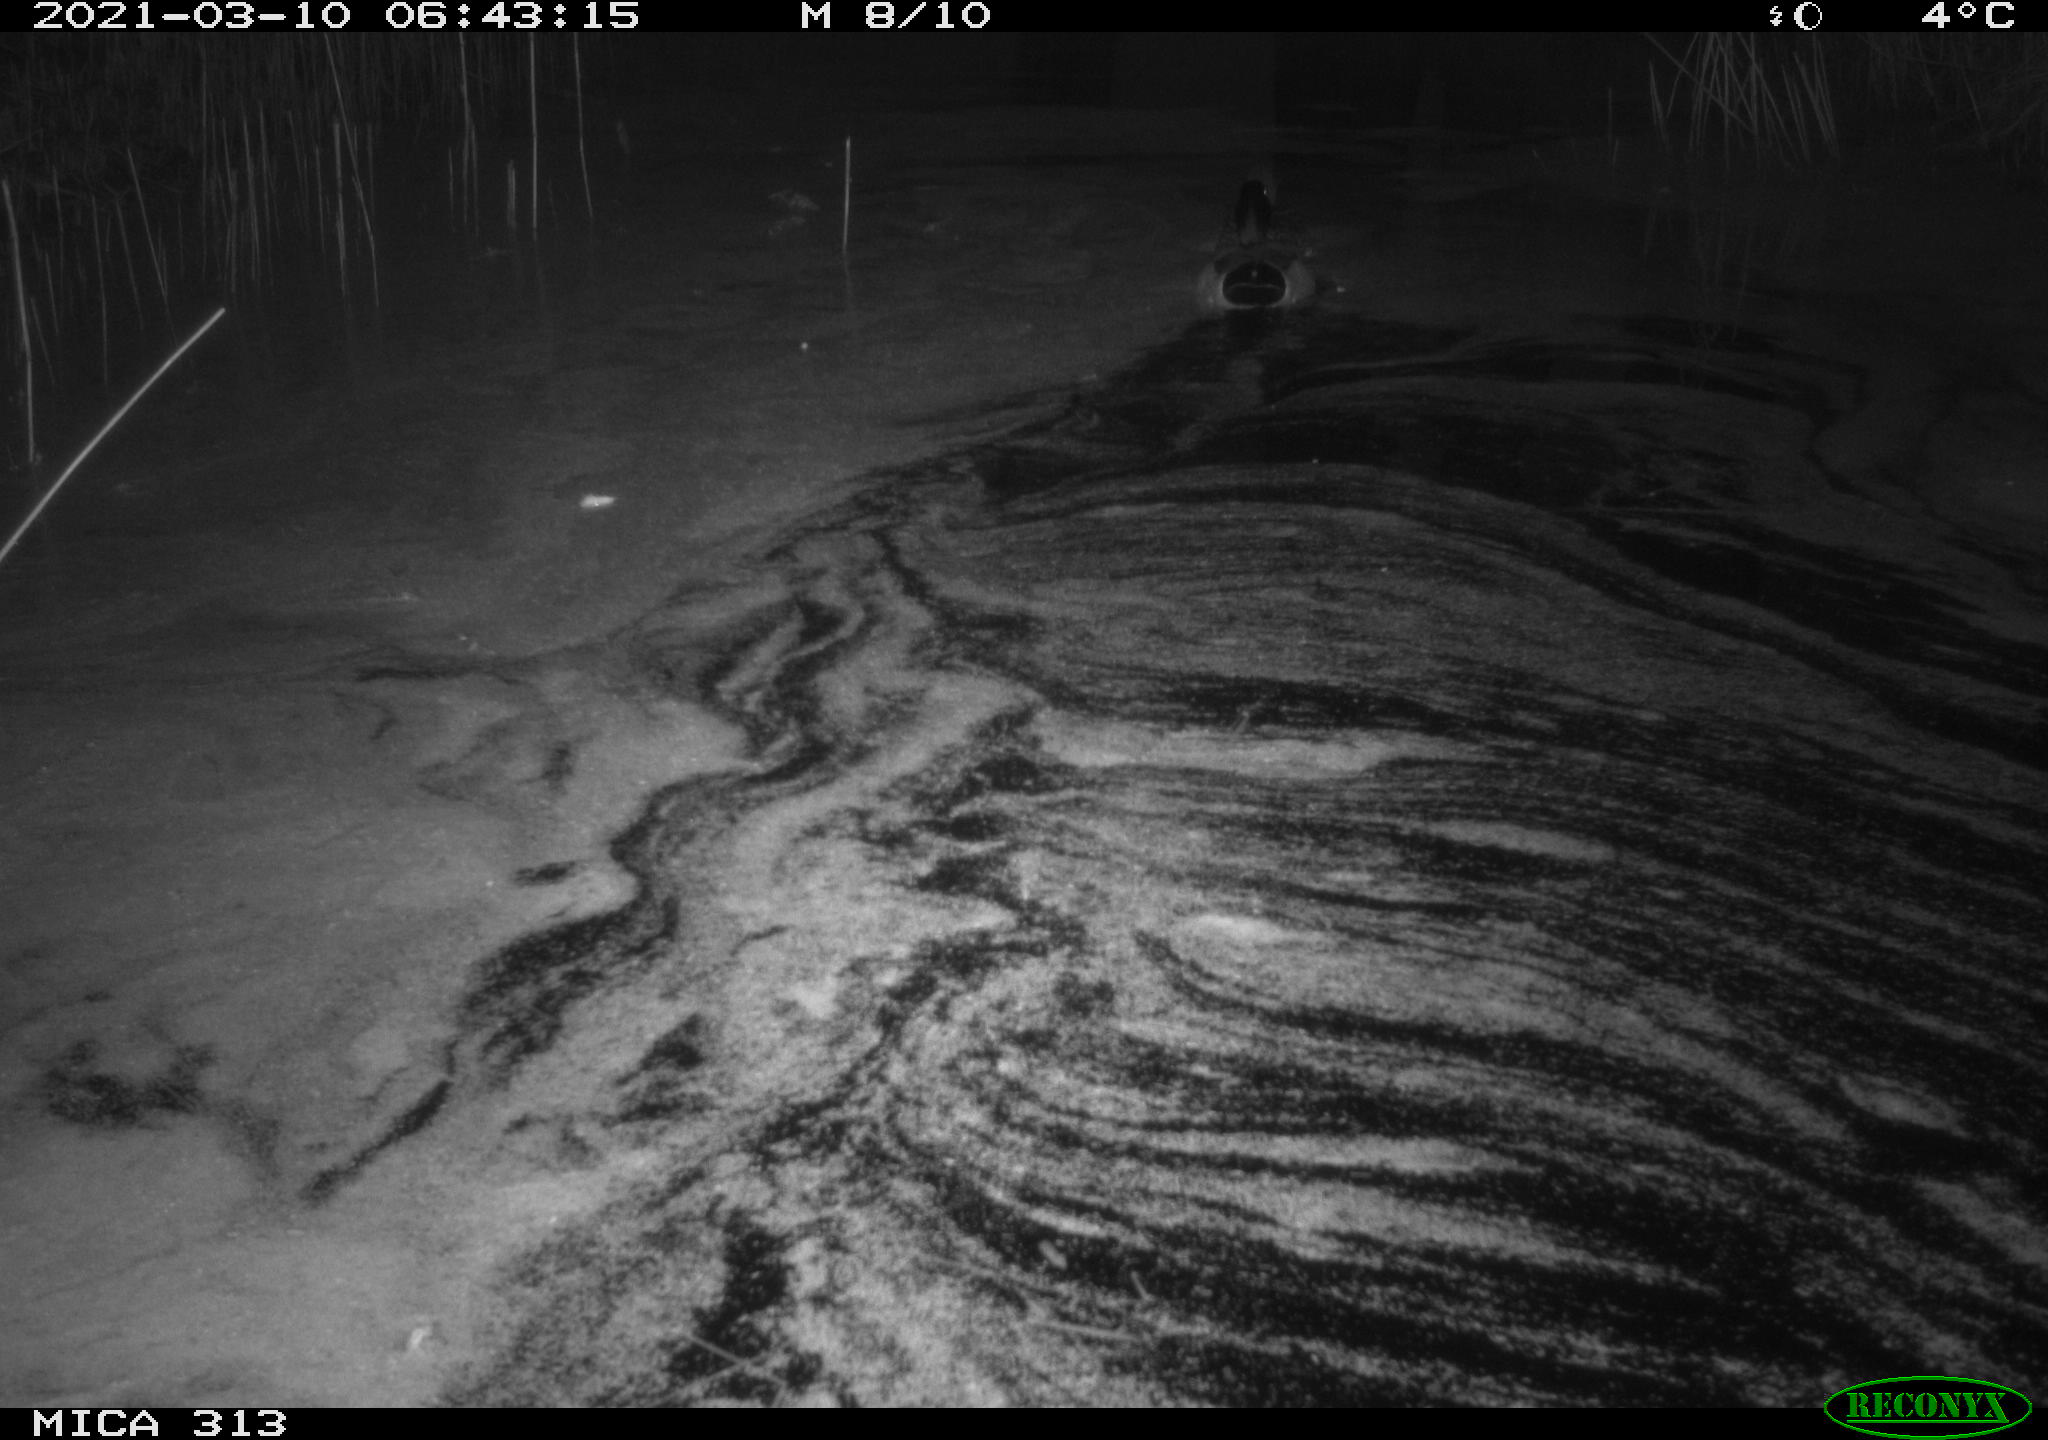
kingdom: Animalia
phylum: Chordata
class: Aves
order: Anseriformes
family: Anatidae
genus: Anas
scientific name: Anas platyrhynchos
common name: Mallard
